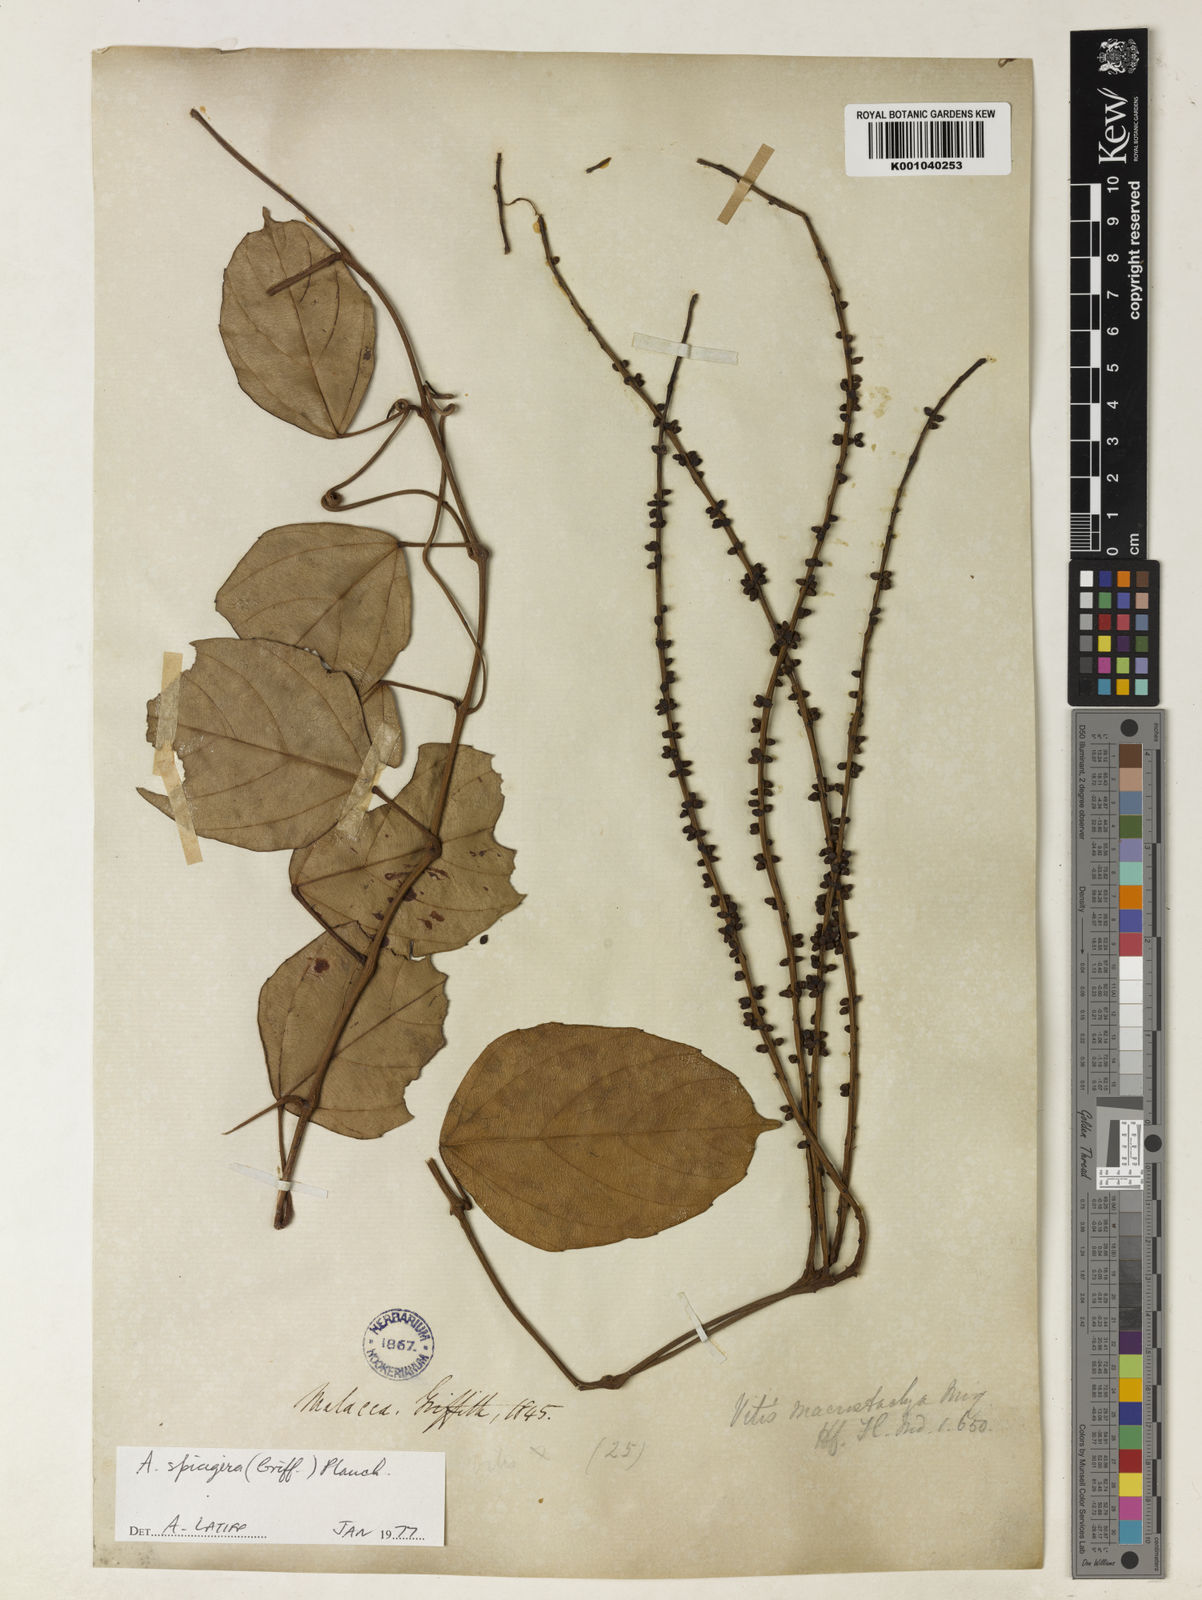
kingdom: Plantae
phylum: Tracheophyta
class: Magnoliopsida
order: Vitales
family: Vitaceae
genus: Nothocissus
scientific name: Nothocissus spicifera
